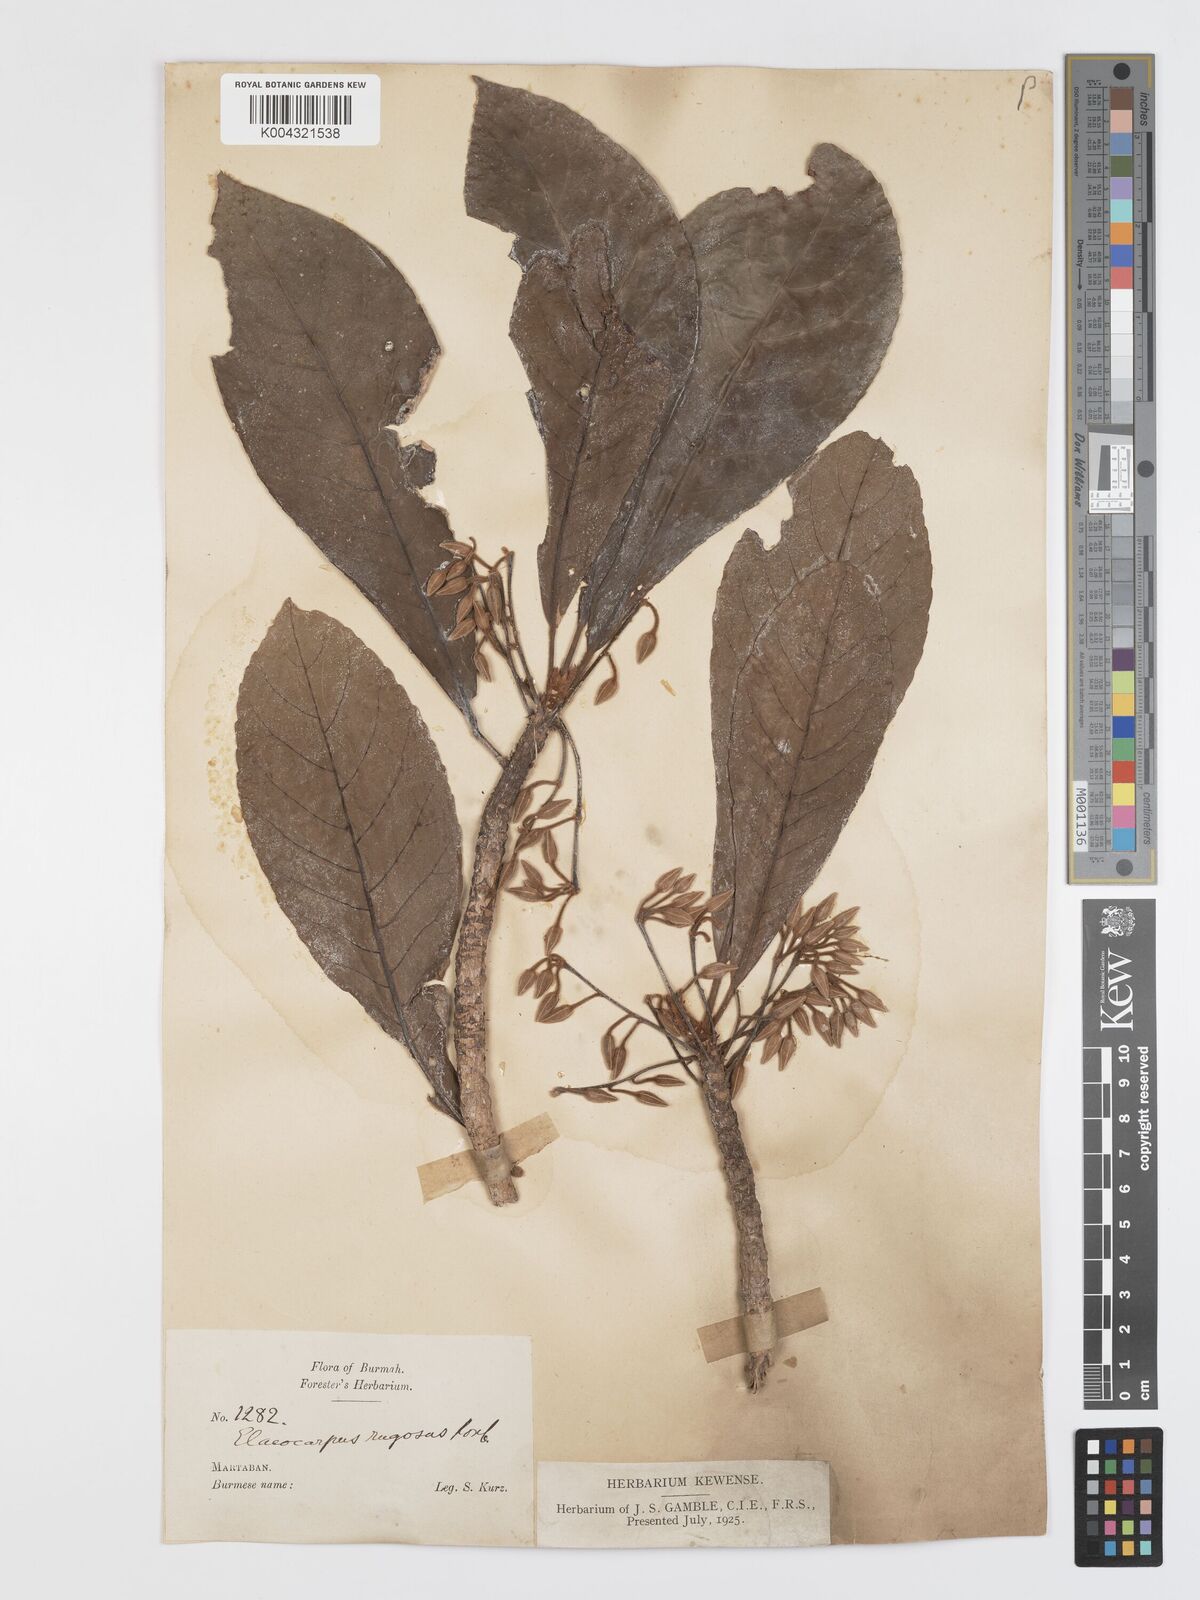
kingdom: Plantae
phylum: Tracheophyta
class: Magnoliopsida
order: Oxalidales
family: Elaeocarpaceae
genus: Elaeocarpus
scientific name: Elaeocarpus aristatus
